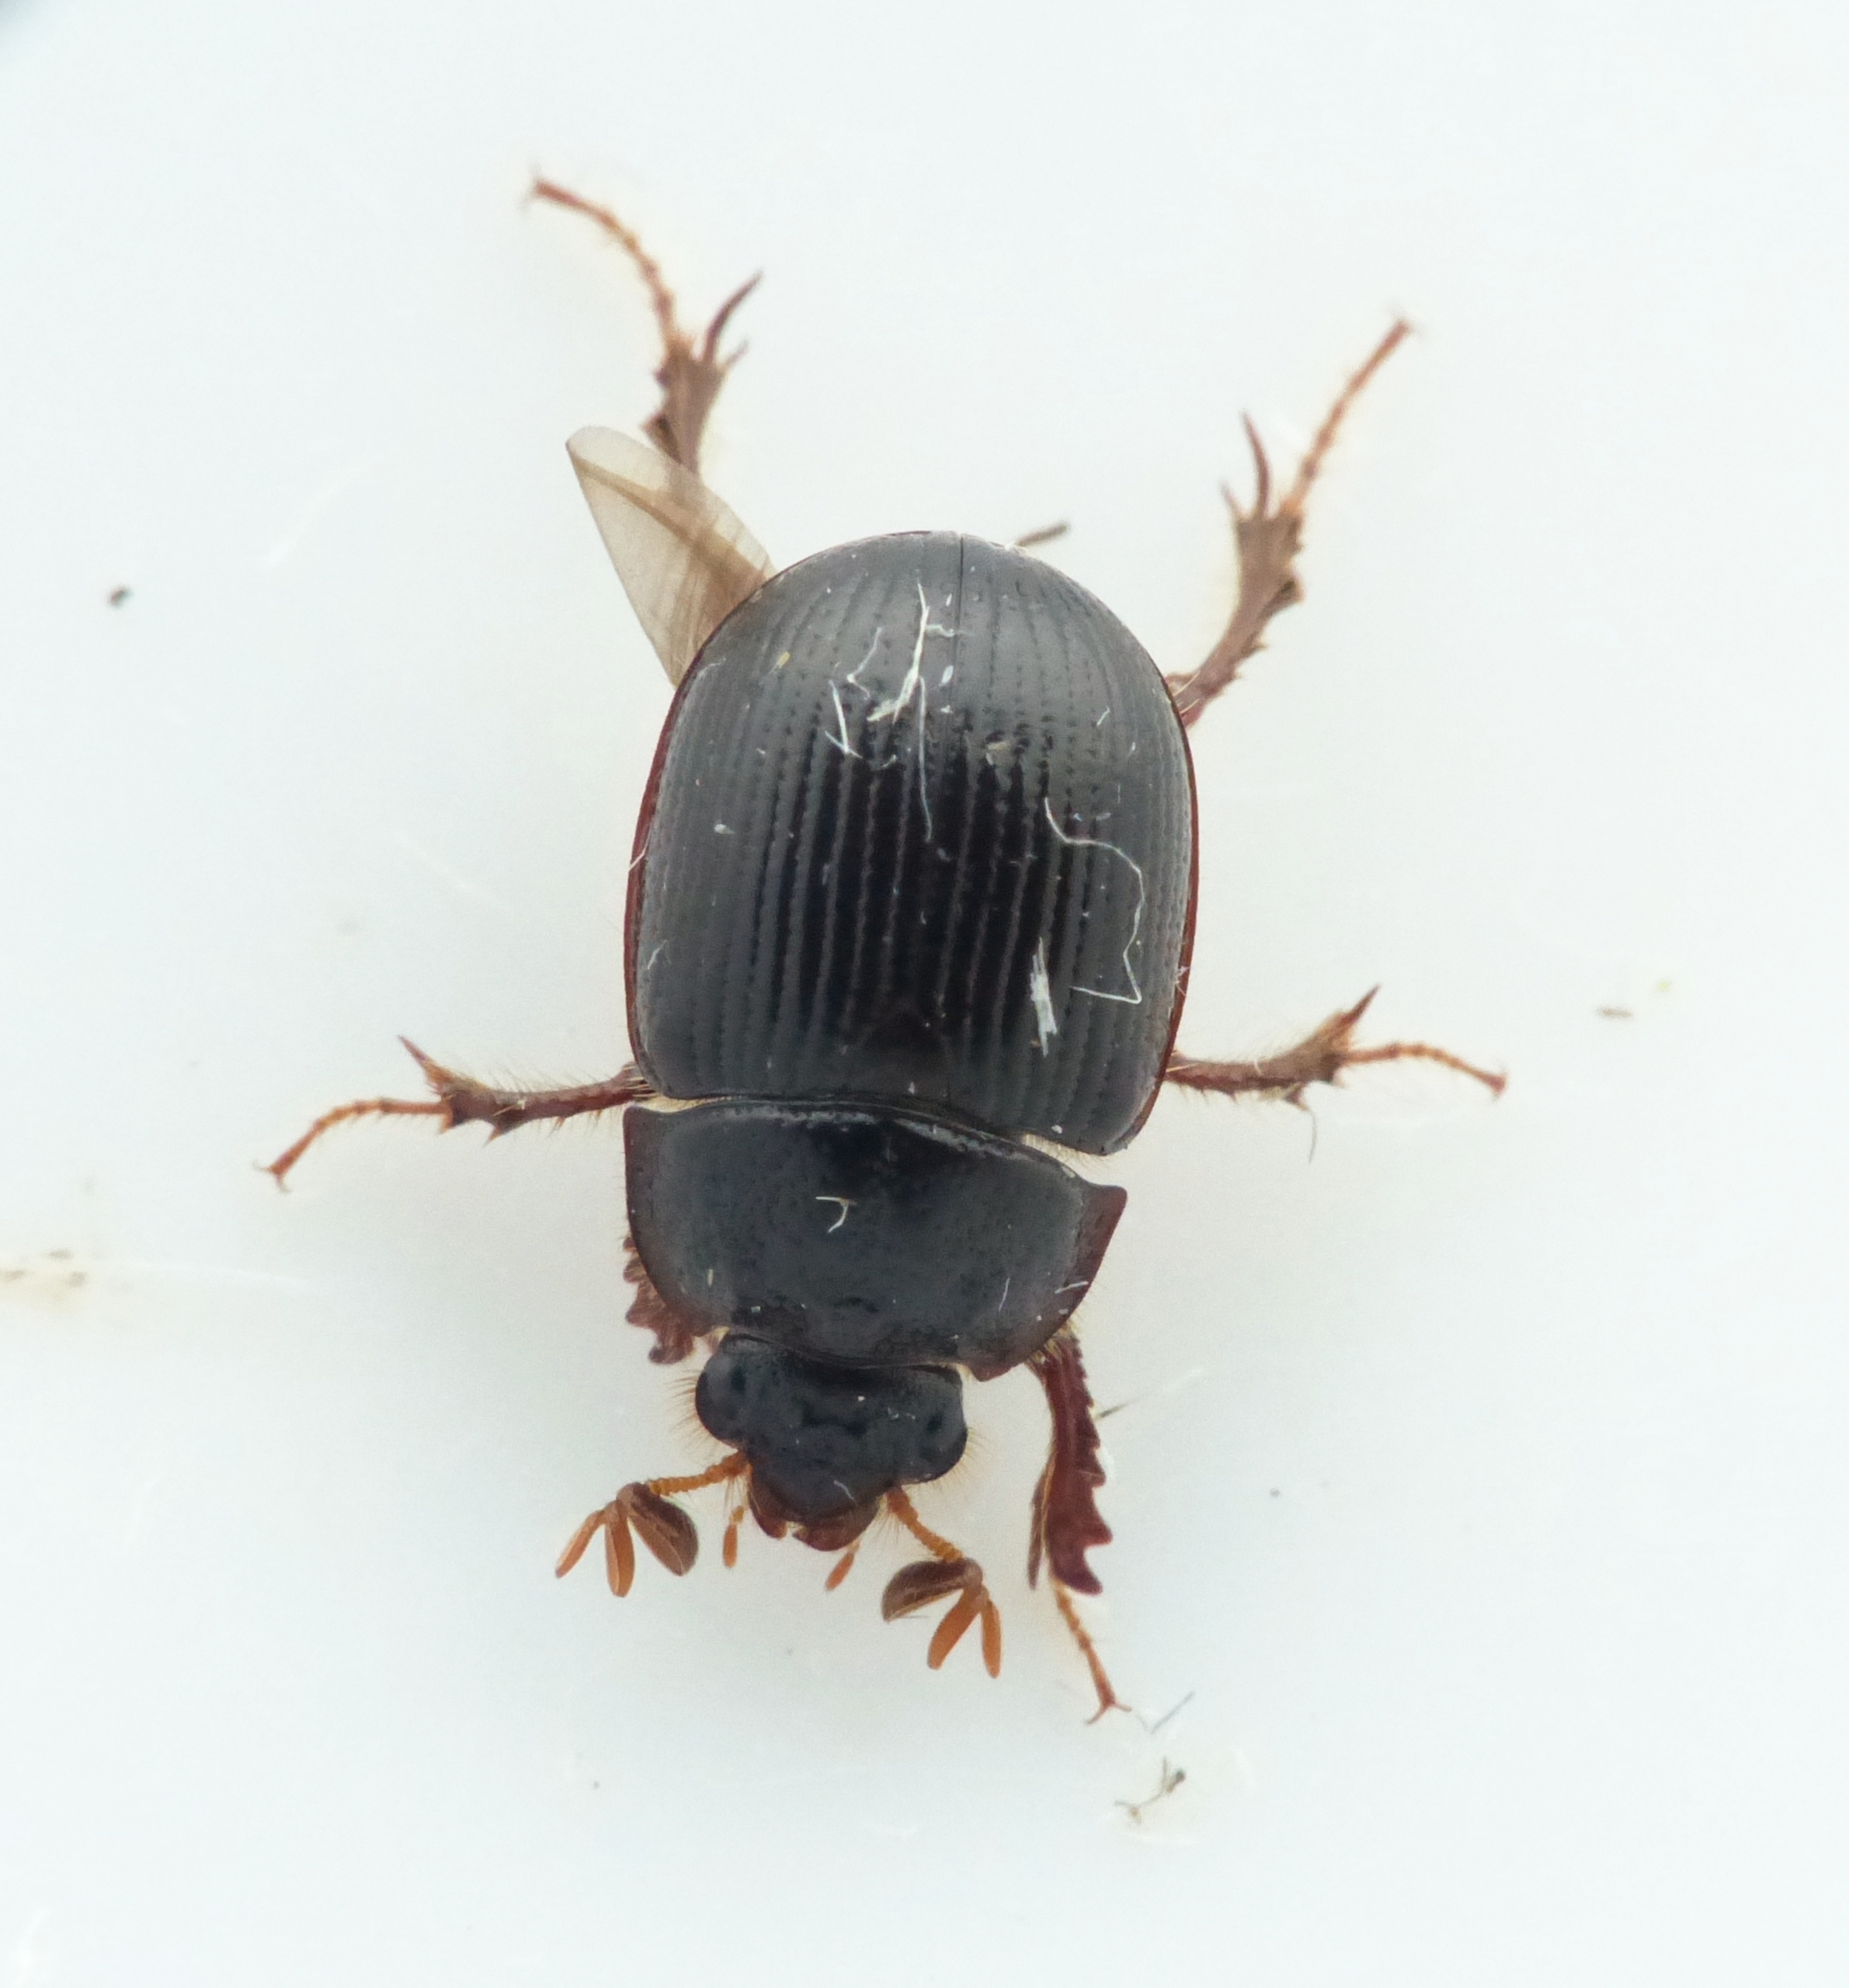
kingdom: Animalia
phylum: Arthropoda
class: Insecta
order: Coleoptera
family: Geotrupidae
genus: Odonteus
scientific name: Odonteus armiger
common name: Trøffeltorbist
